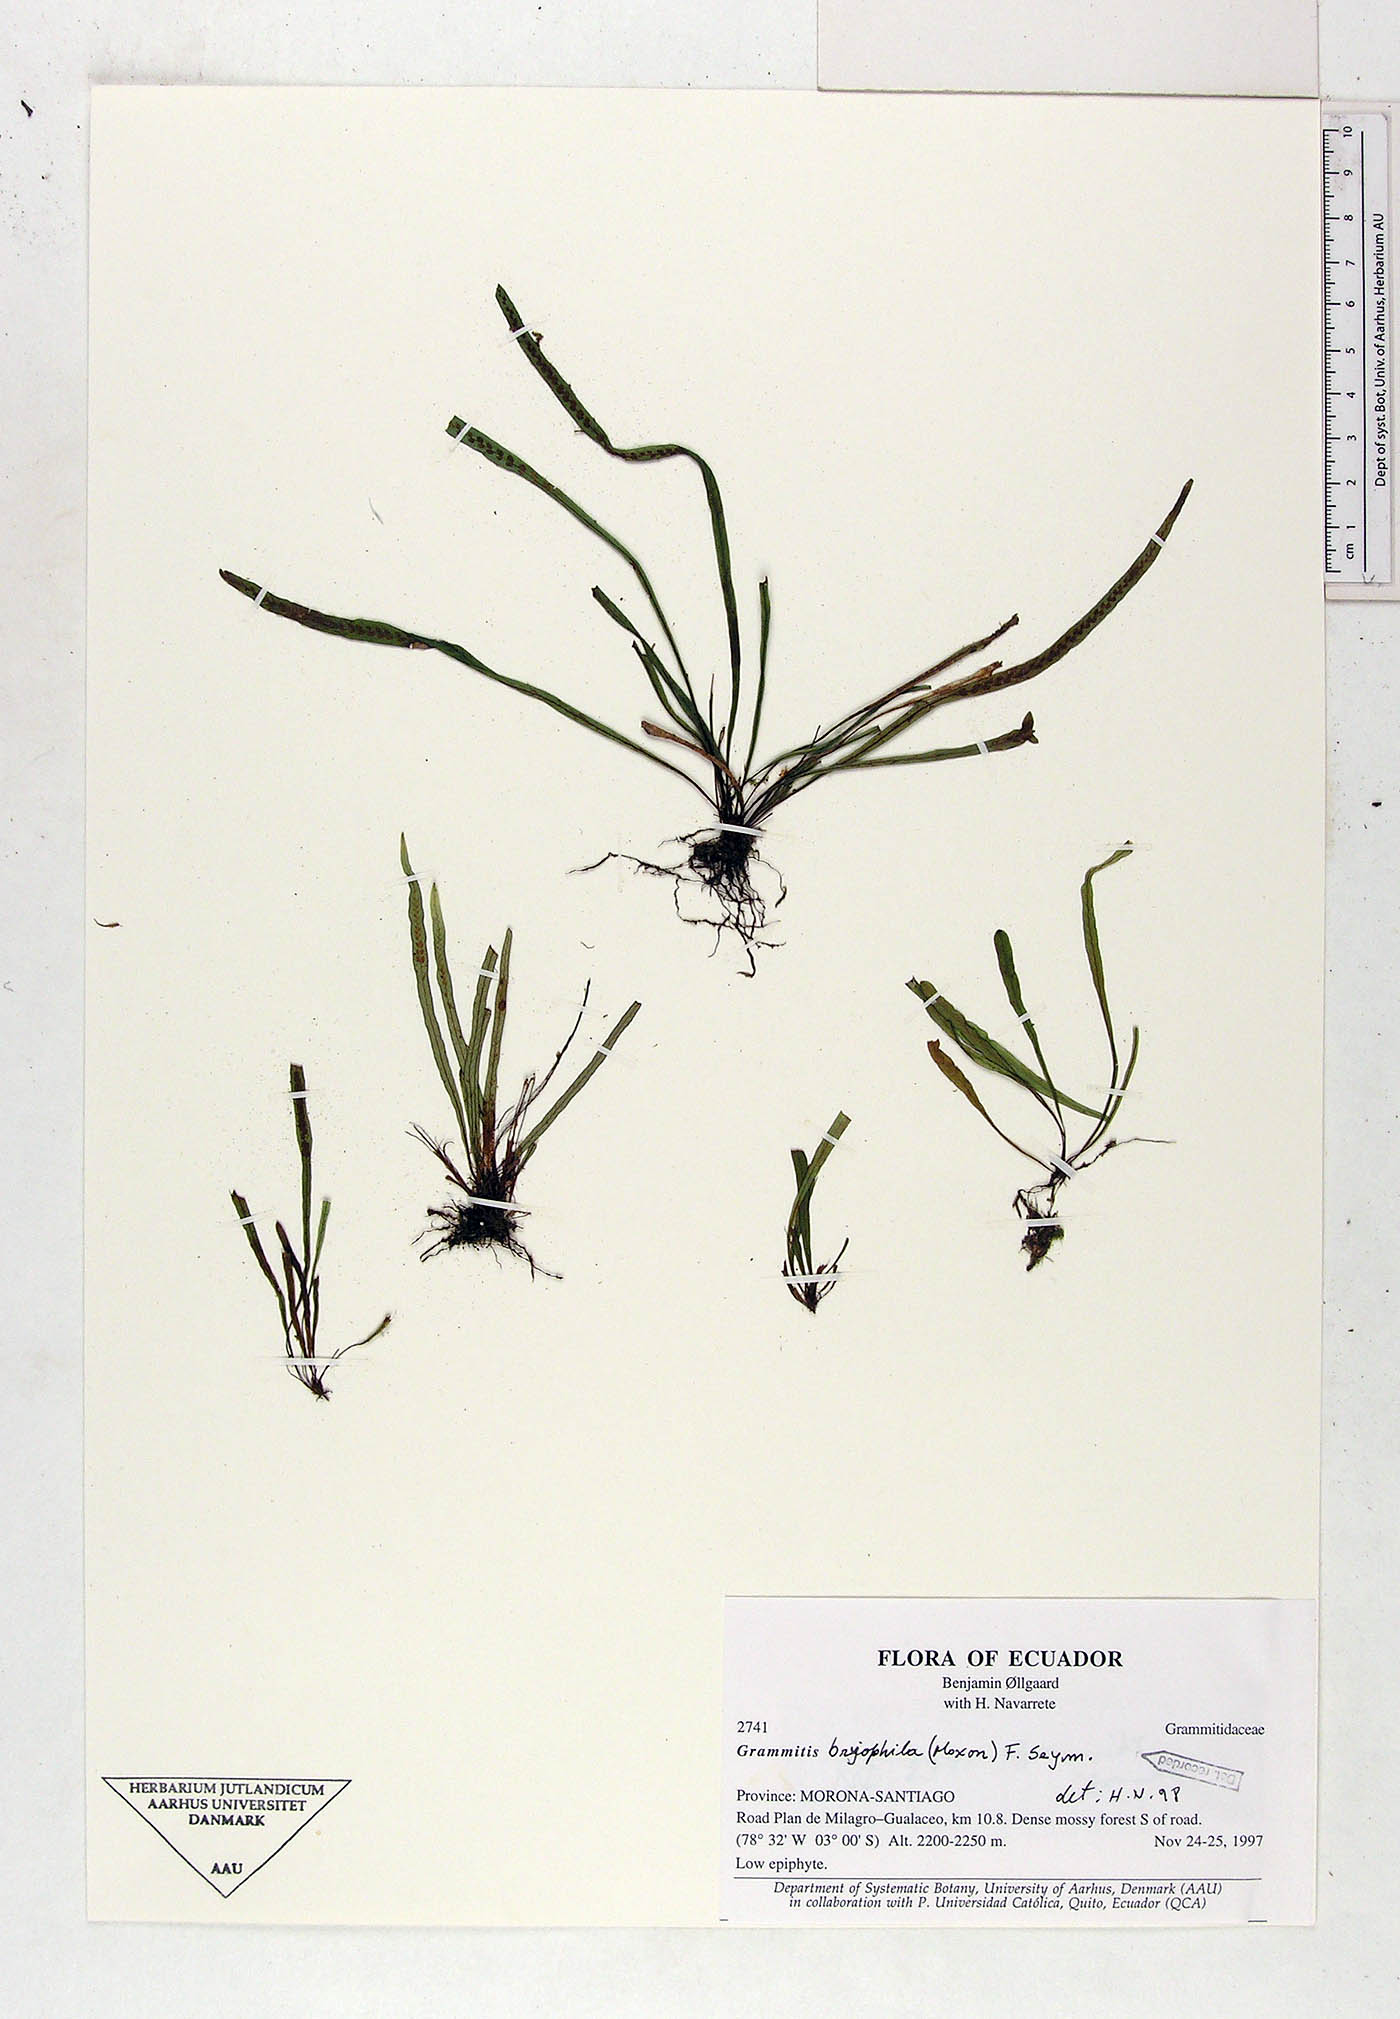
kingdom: Plantae
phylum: Tracheophyta
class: Polypodiopsida
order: Polypodiales
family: Polypodiaceae
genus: Grammitis
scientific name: Grammitis bryophila
